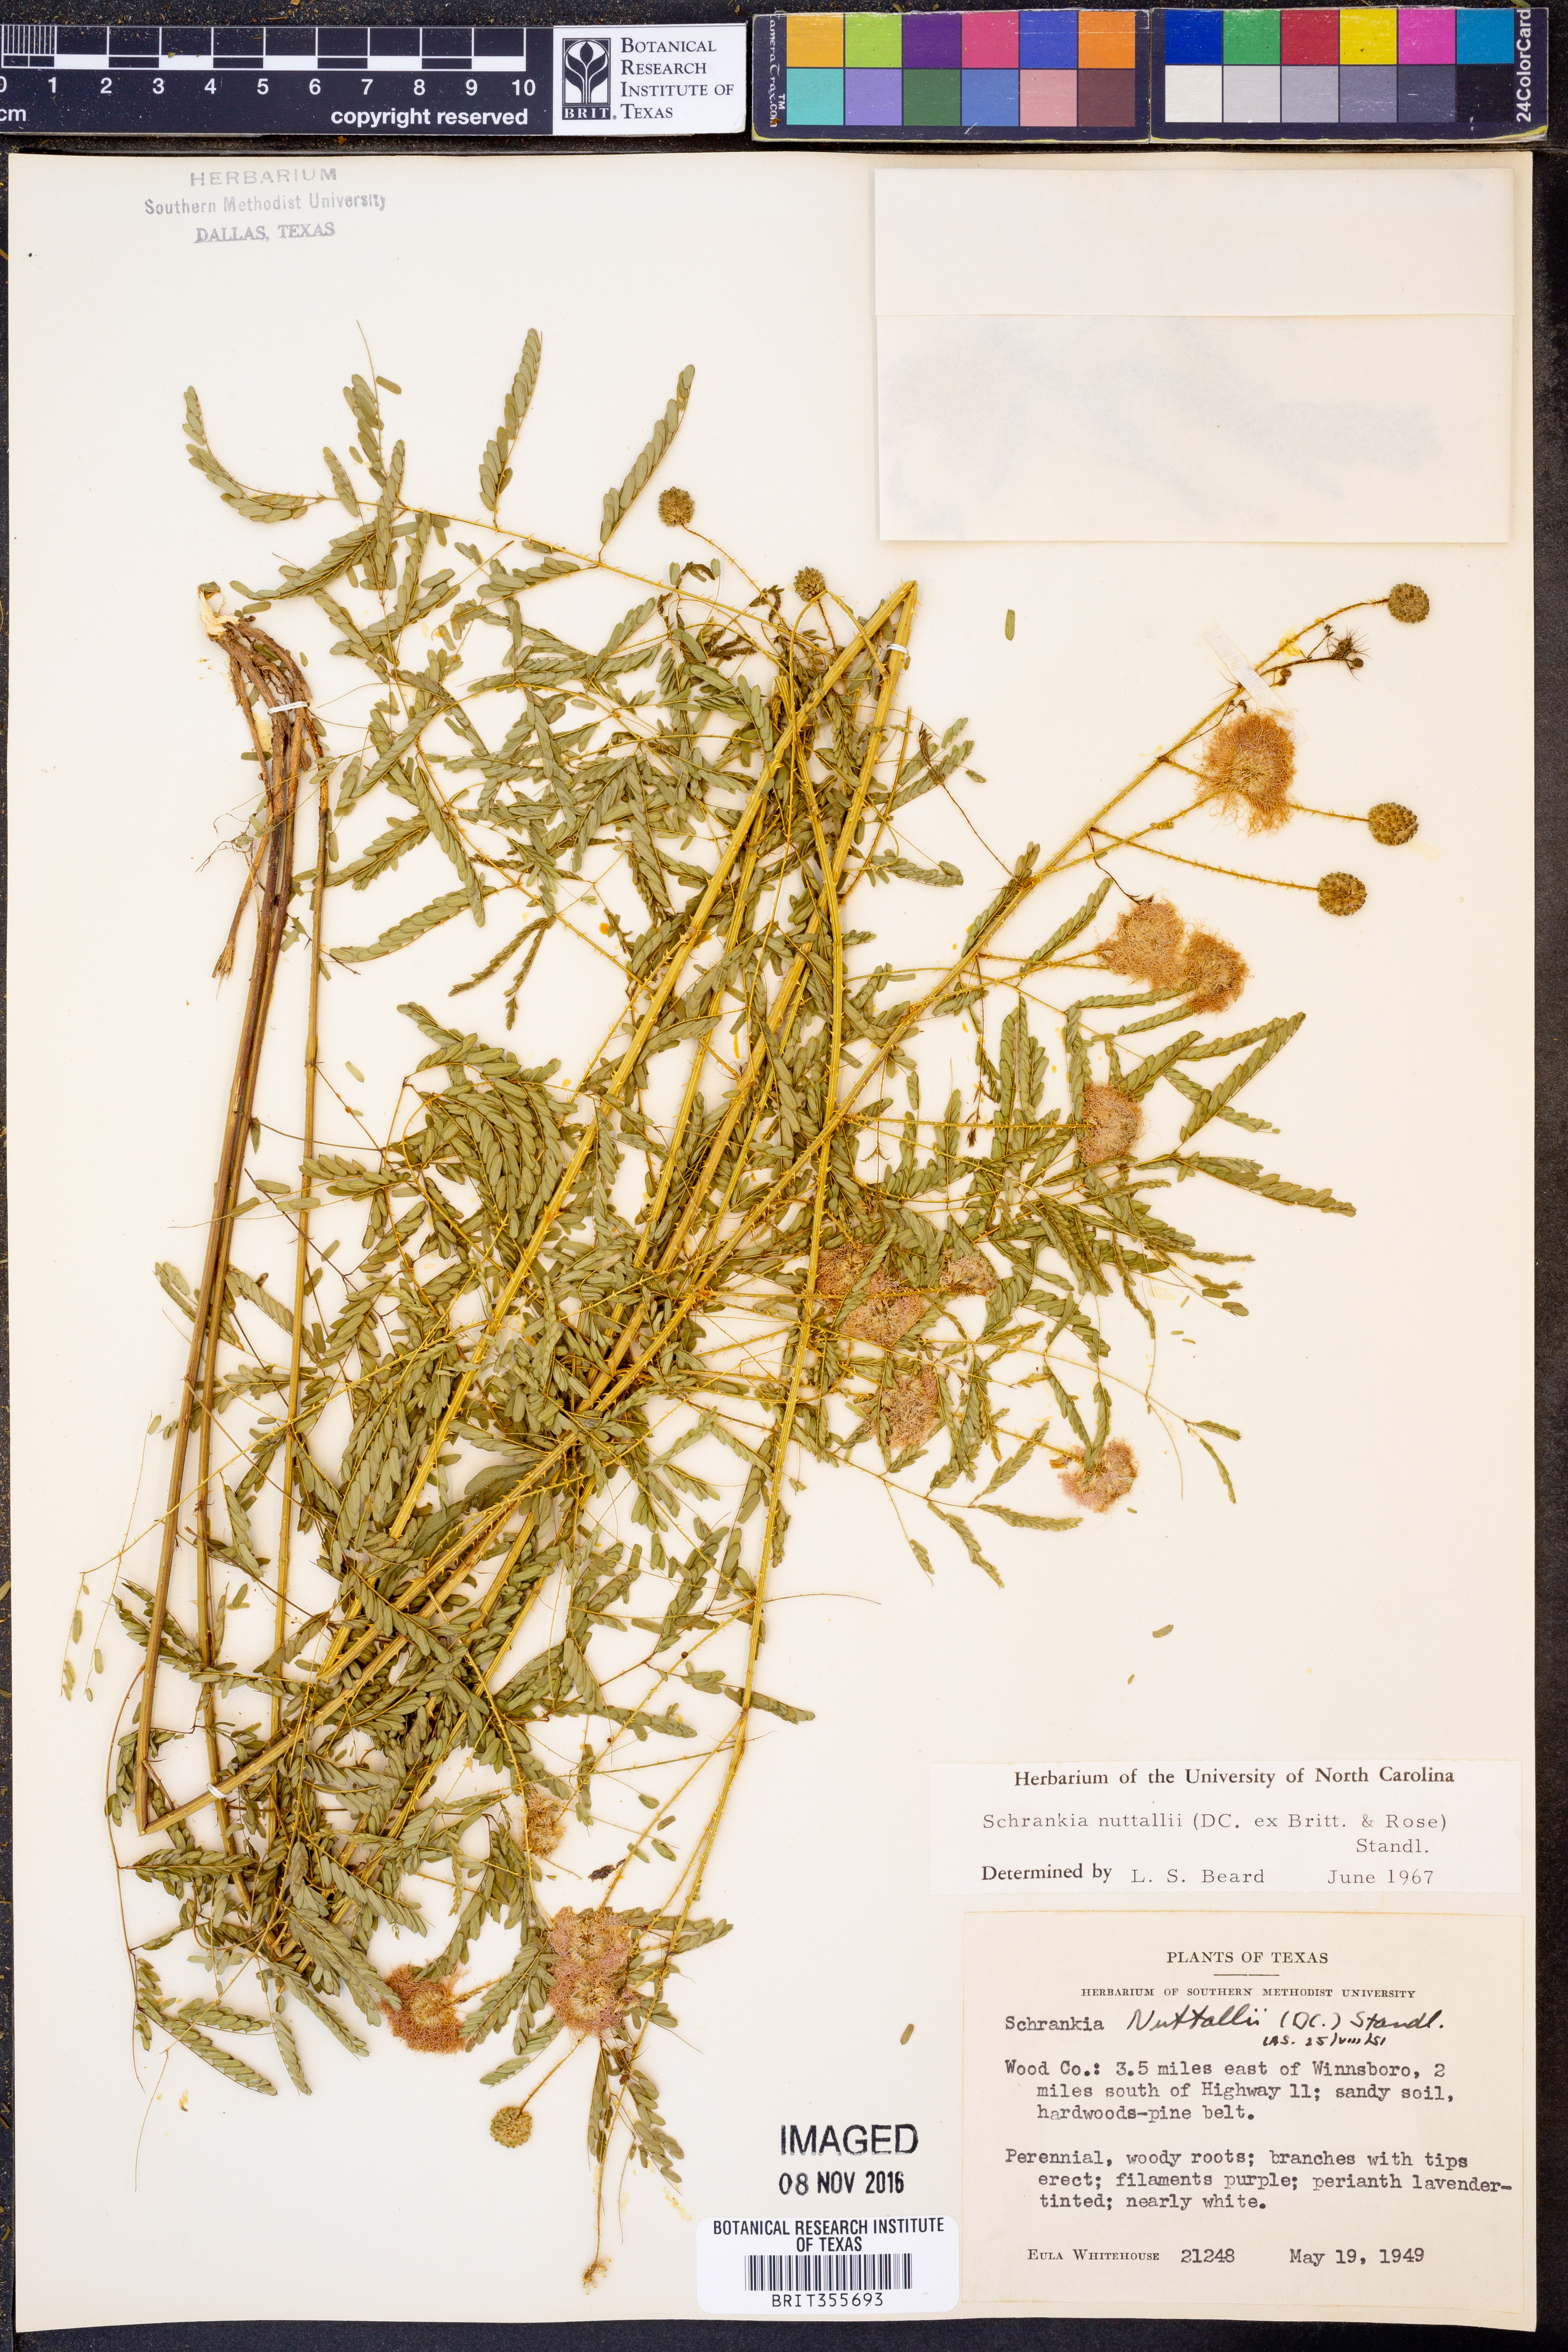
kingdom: Plantae
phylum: Tracheophyta
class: Magnoliopsida
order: Fabales
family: Fabaceae
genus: Mimosa
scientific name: Mimosa quadrivalvis
